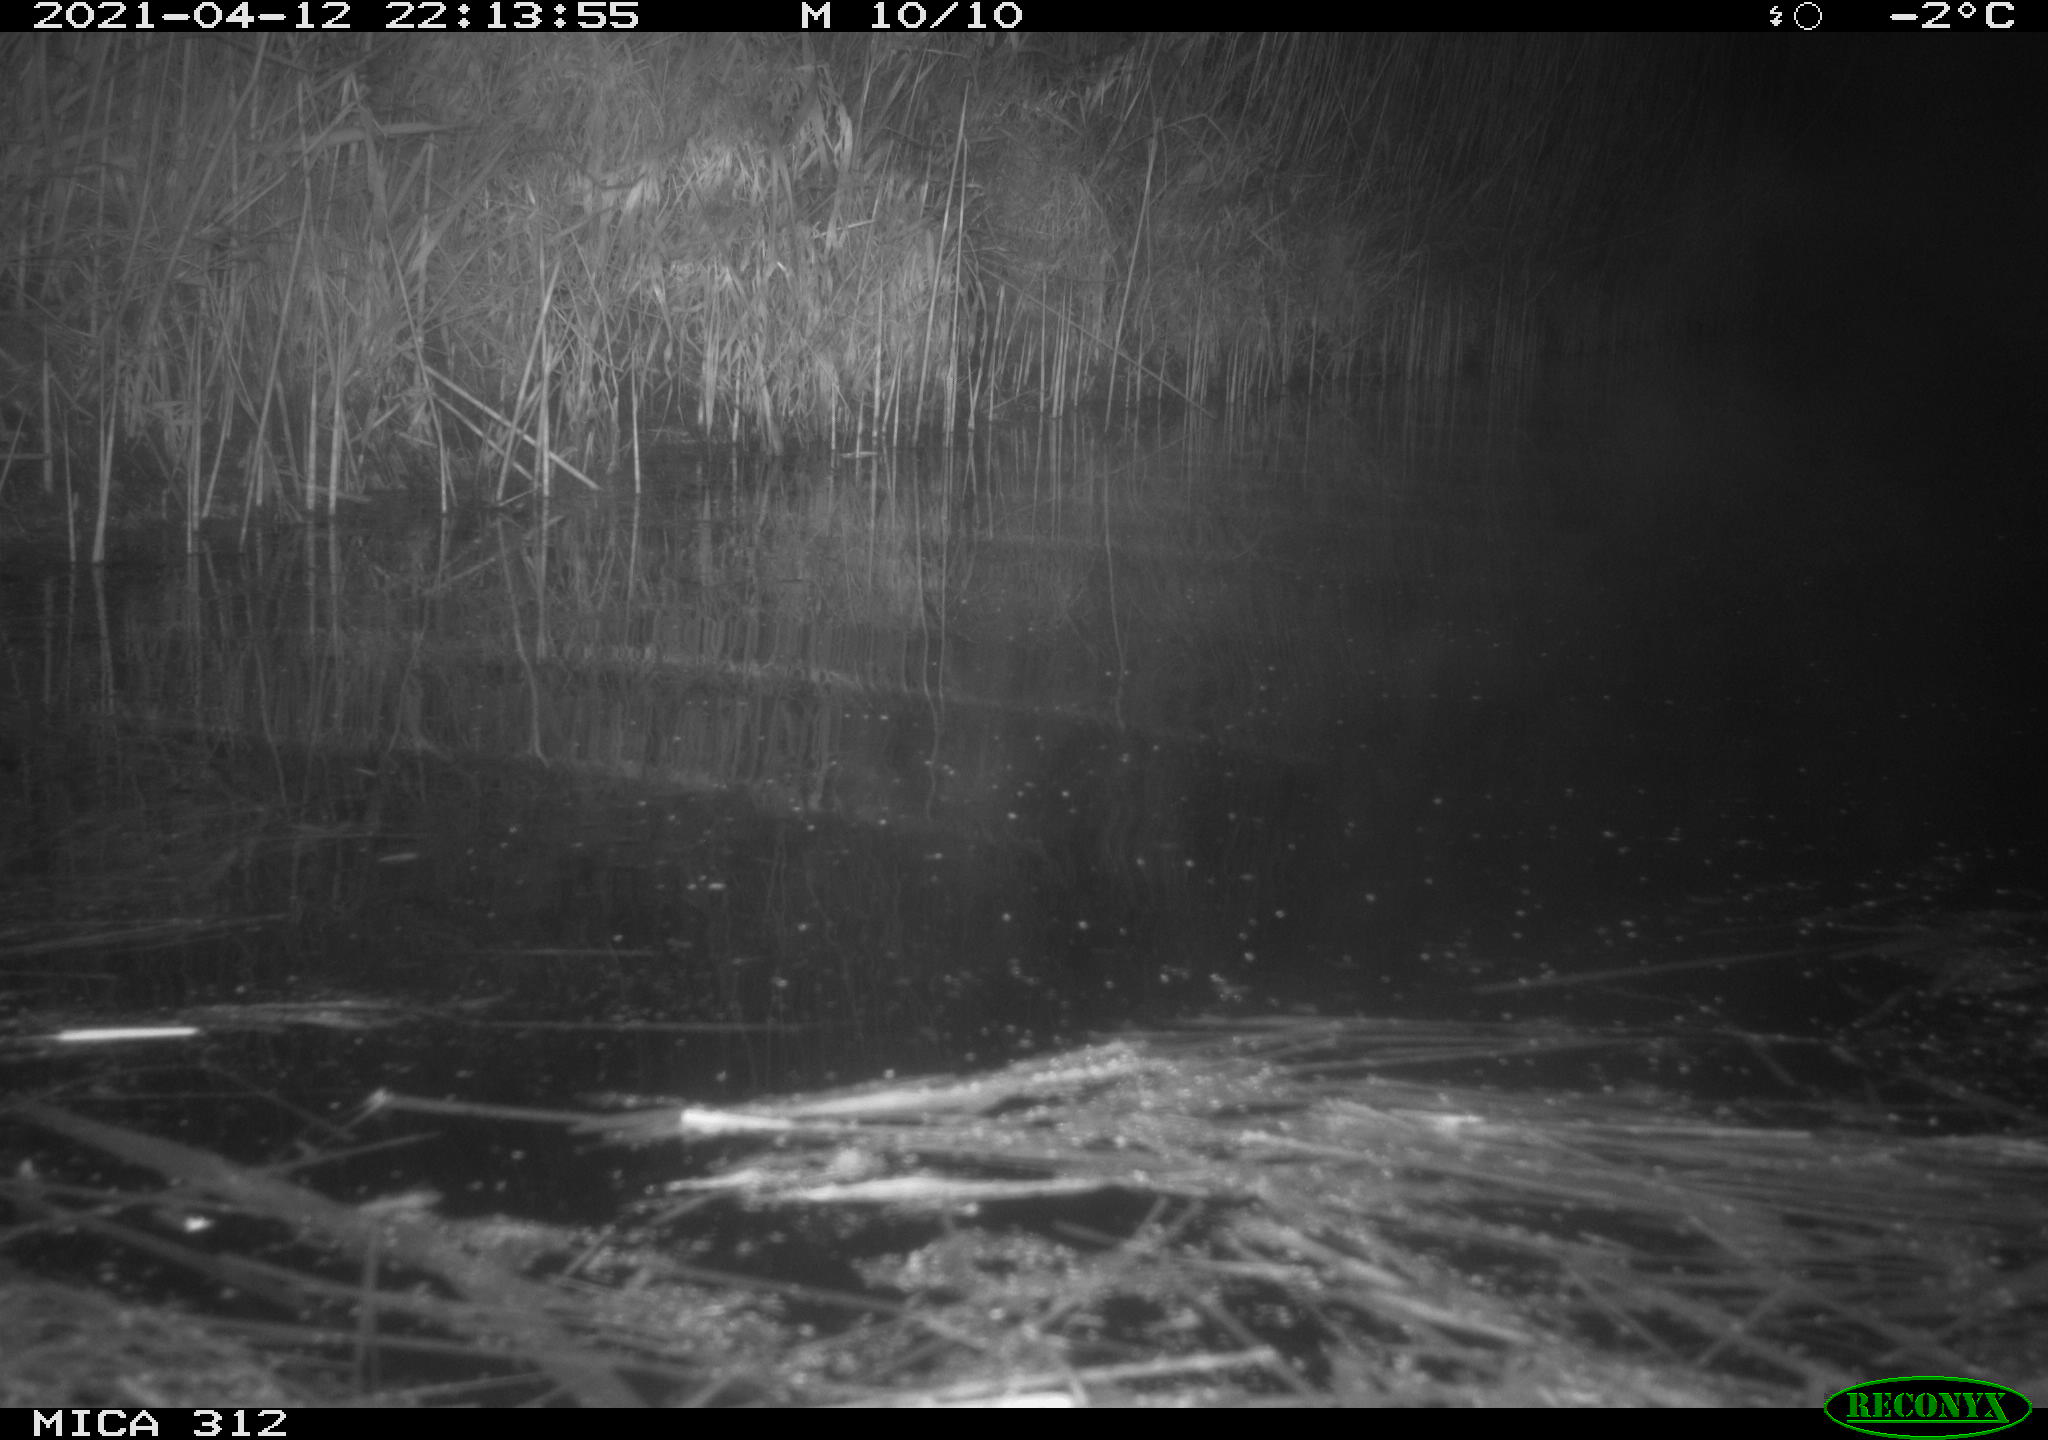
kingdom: Animalia
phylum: Chordata
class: Aves
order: Gruiformes
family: Rallidae
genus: Fulica
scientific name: Fulica atra
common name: Eurasian coot
